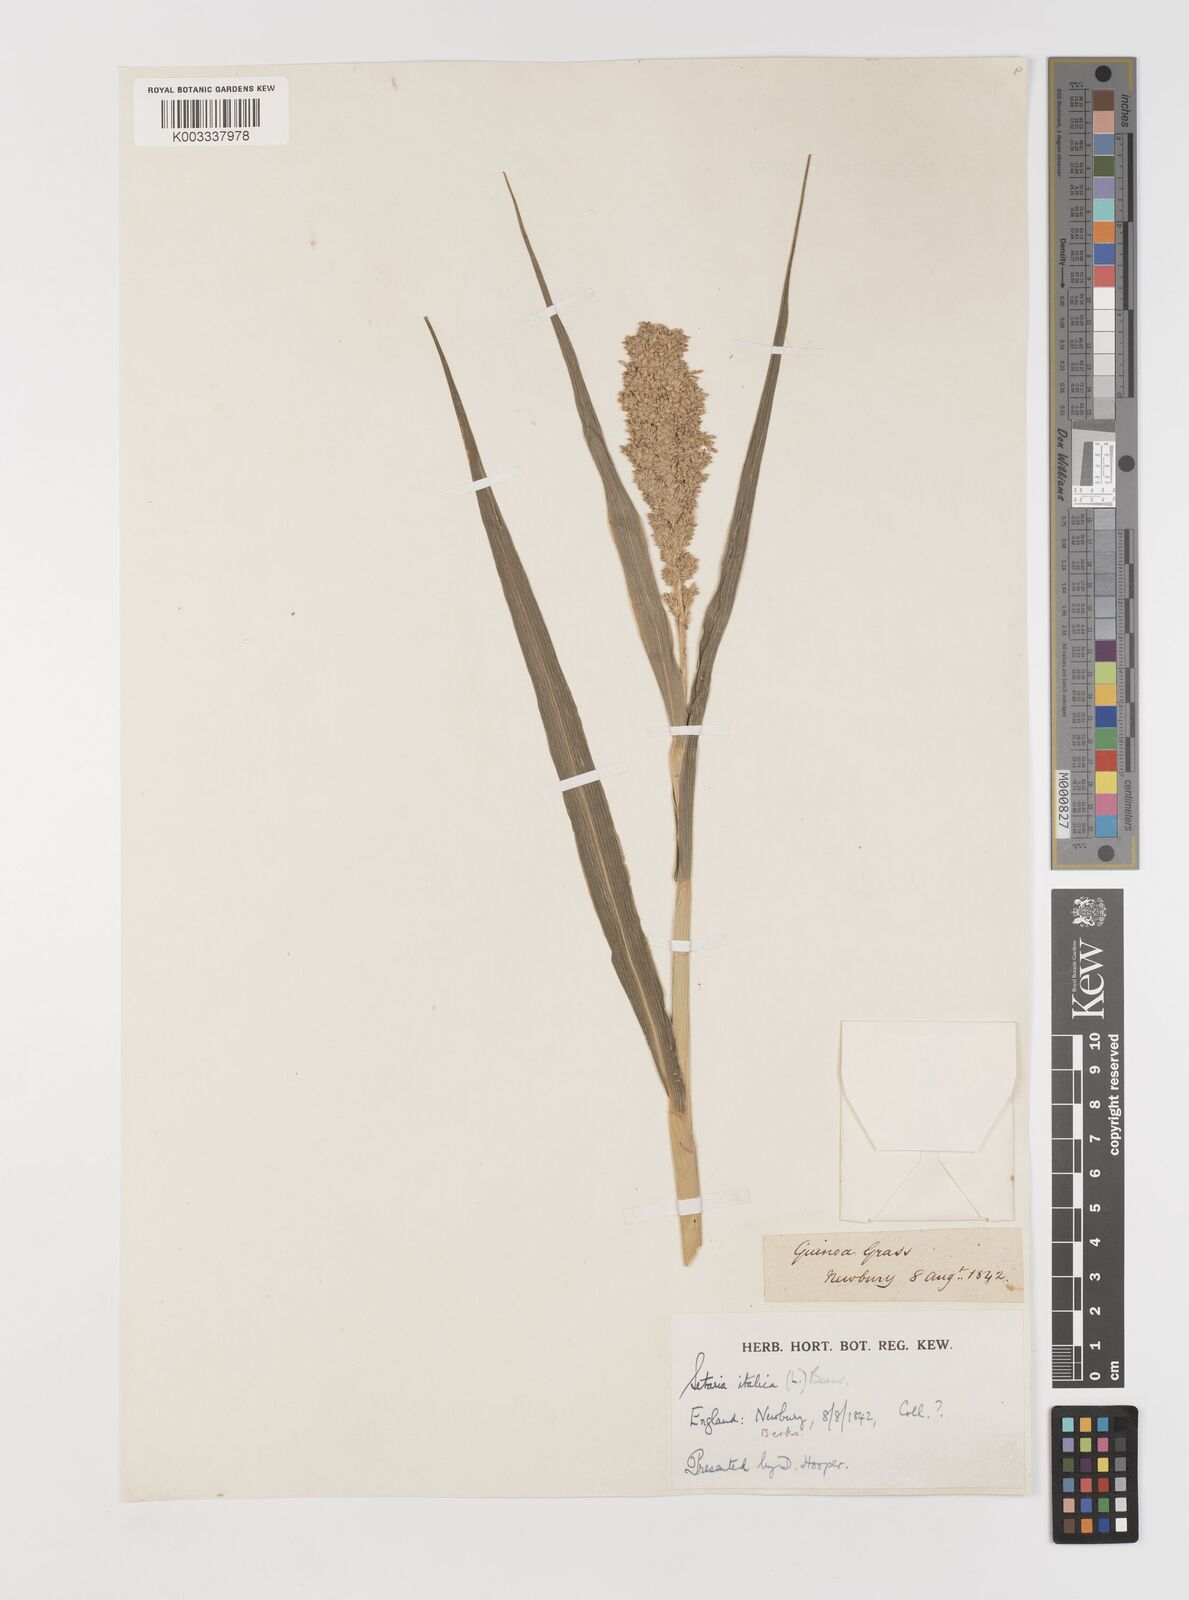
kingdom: Plantae
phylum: Tracheophyta
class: Liliopsida
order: Poales
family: Poaceae
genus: Setaria
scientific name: Setaria italica
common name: Foxtail bristle-grass
